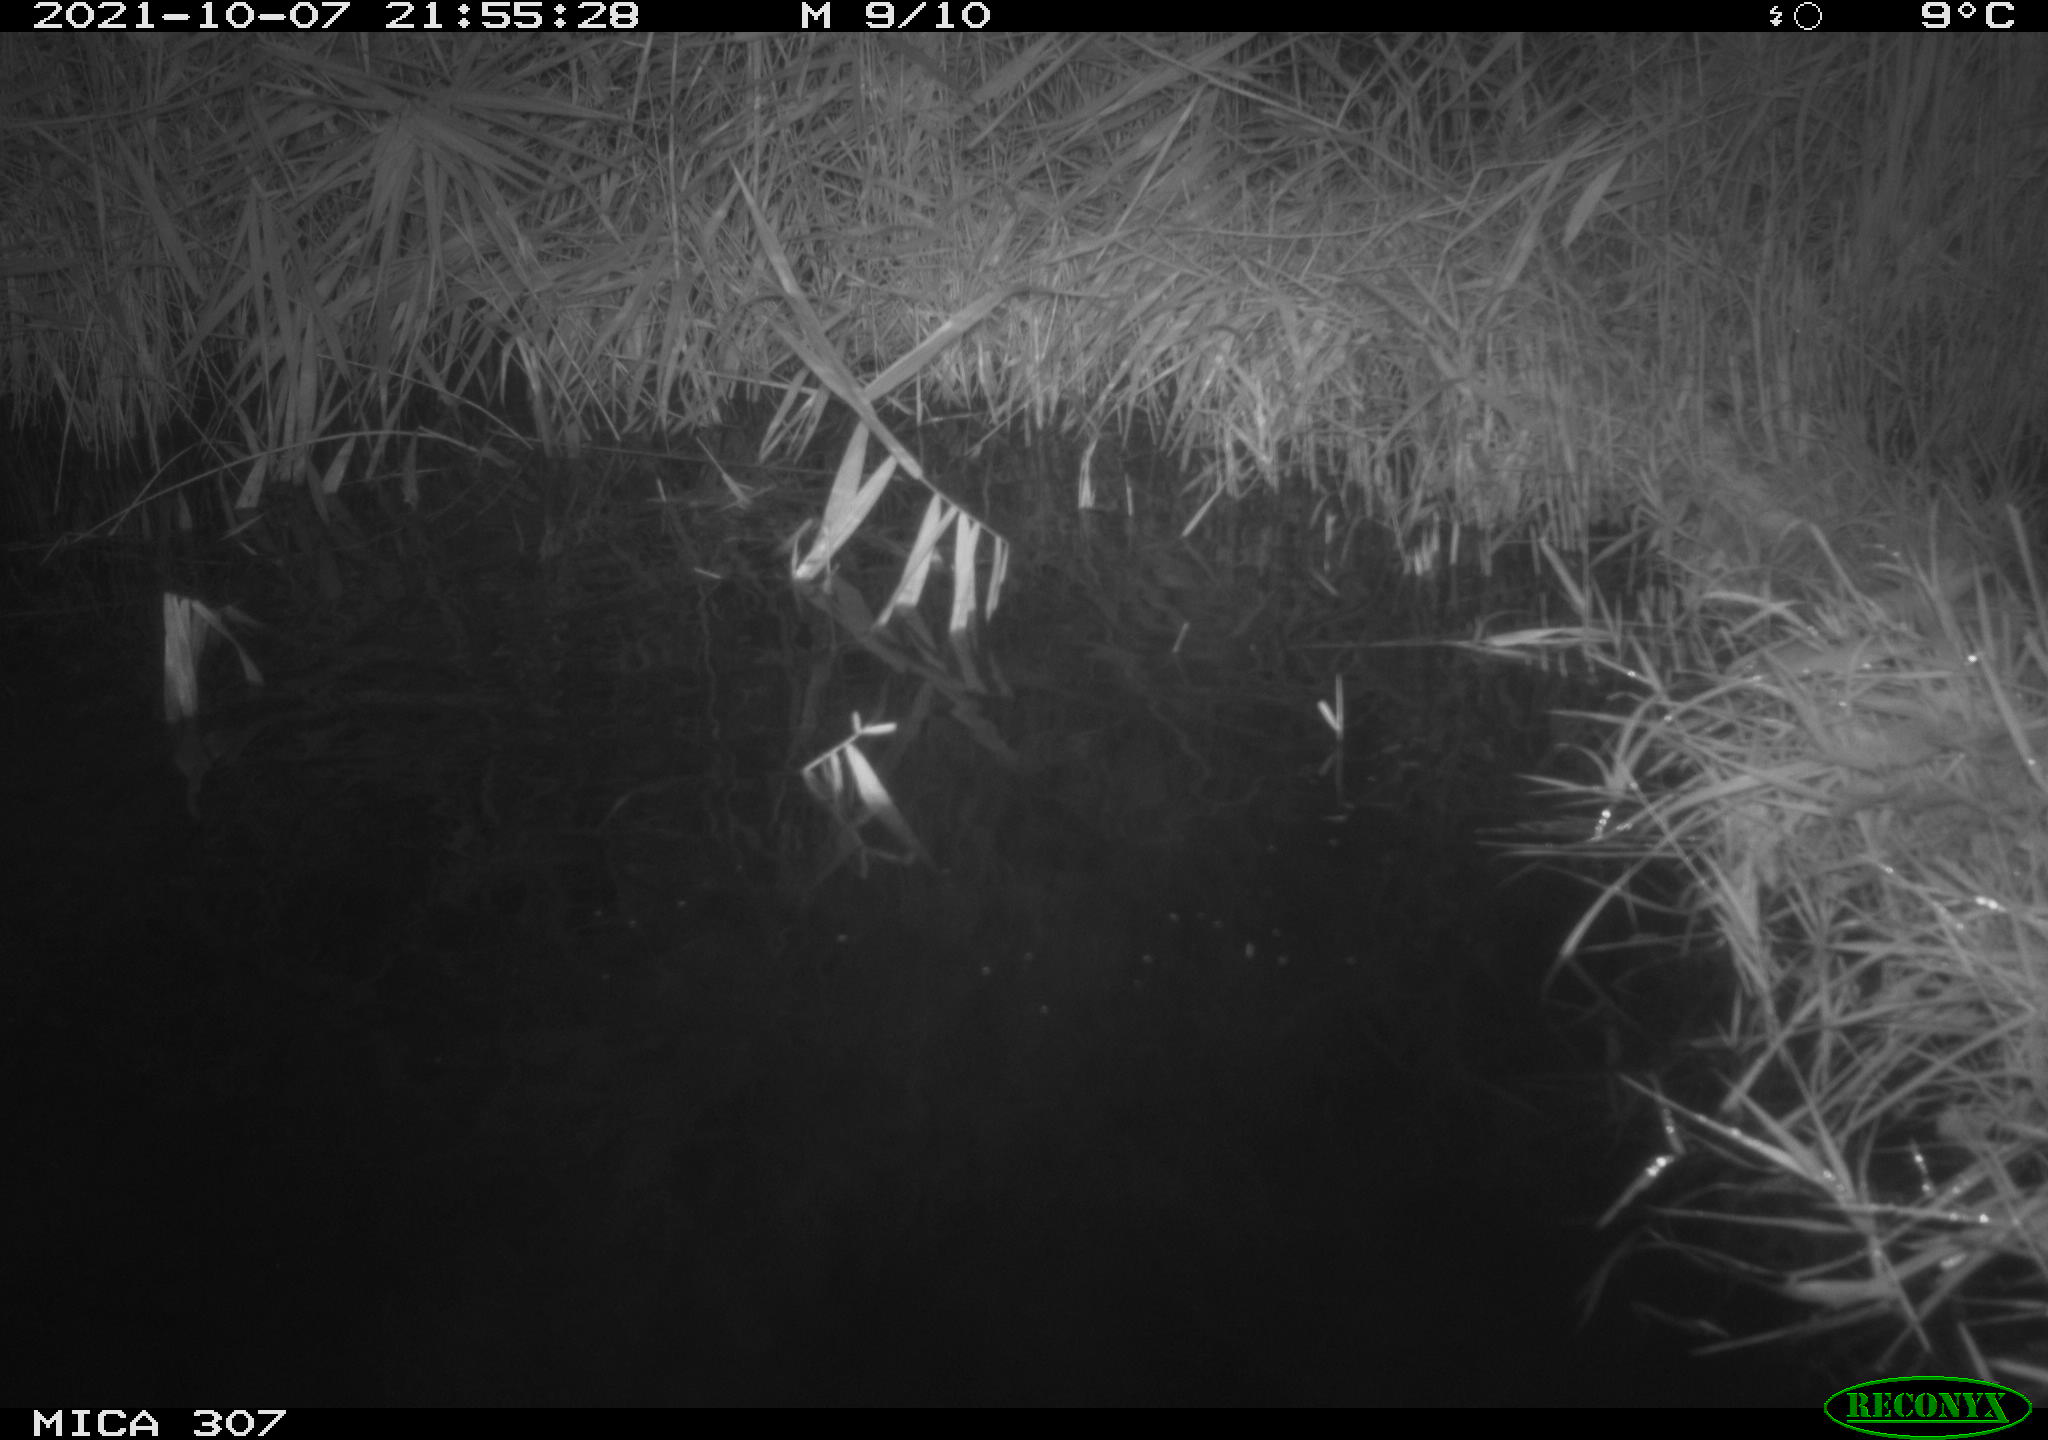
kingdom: Animalia
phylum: Chordata
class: Mammalia
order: Rodentia
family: Muridae
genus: Rattus
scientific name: Rattus norvegicus
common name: Brown rat
